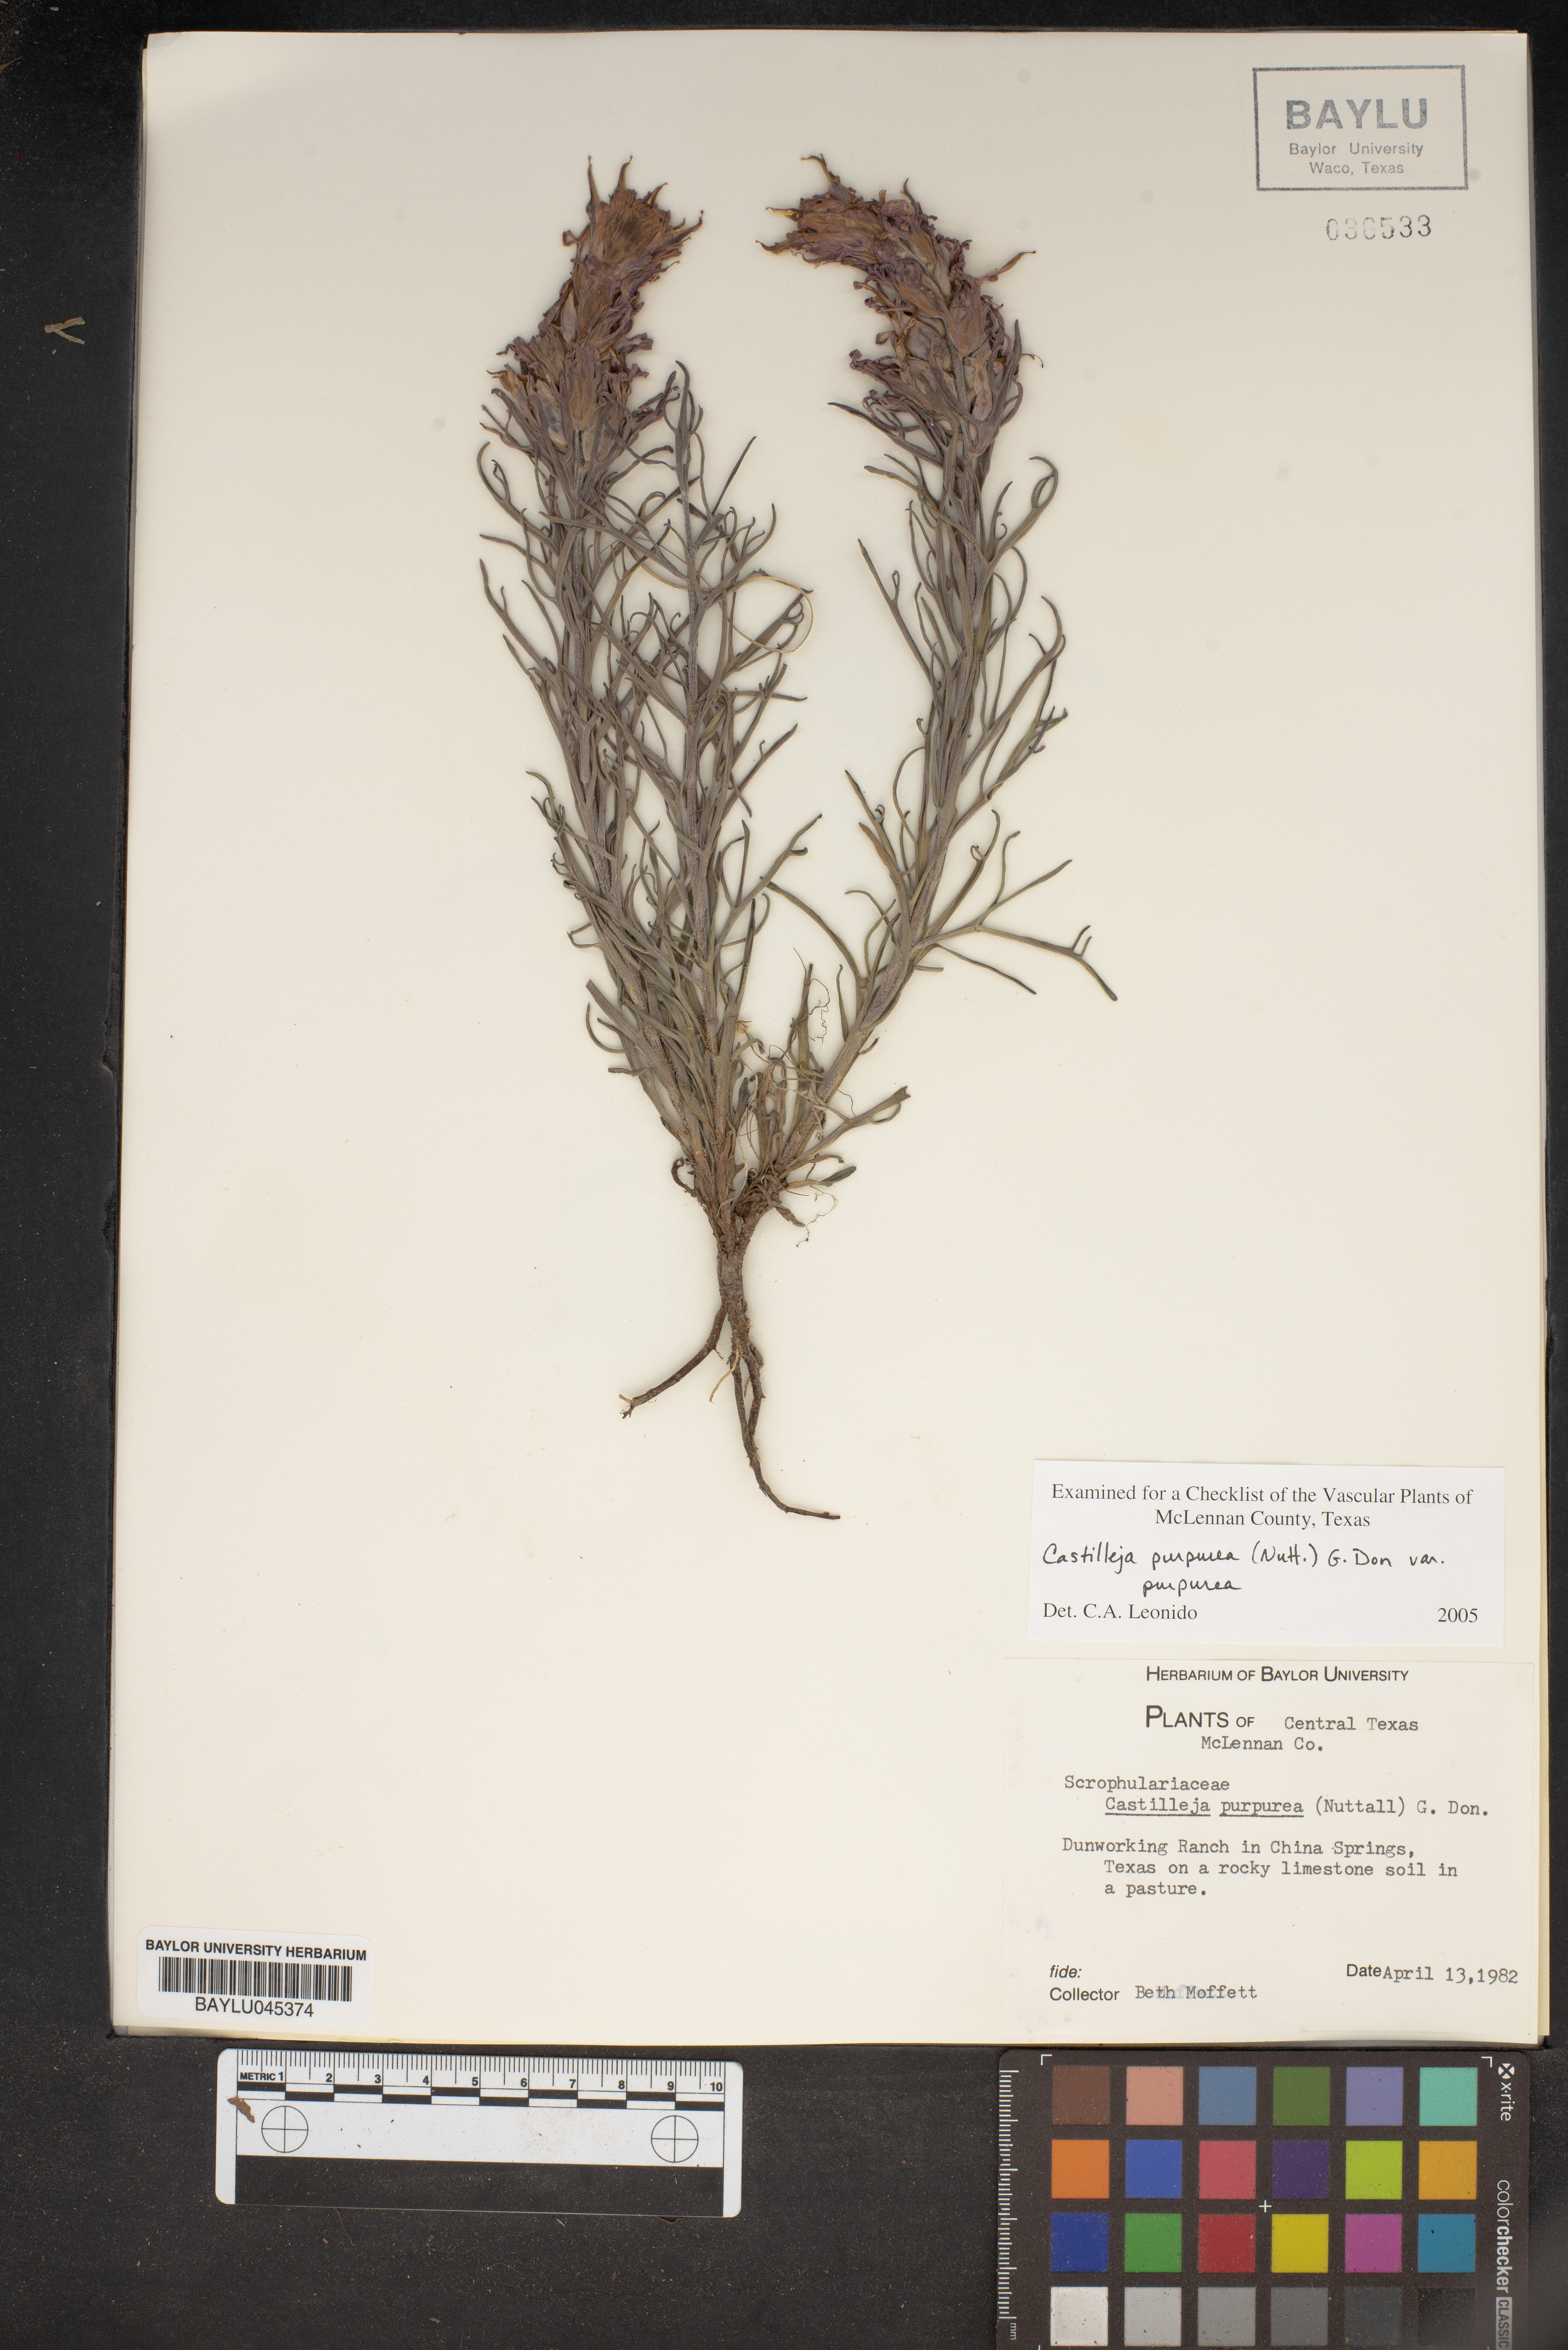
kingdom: Plantae
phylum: Tracheophyta
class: Magnoliopsida
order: Lamiales
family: Orobanchaceae
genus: Castilleja
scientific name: Castilleja purpurea
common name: Plains paintbrush
